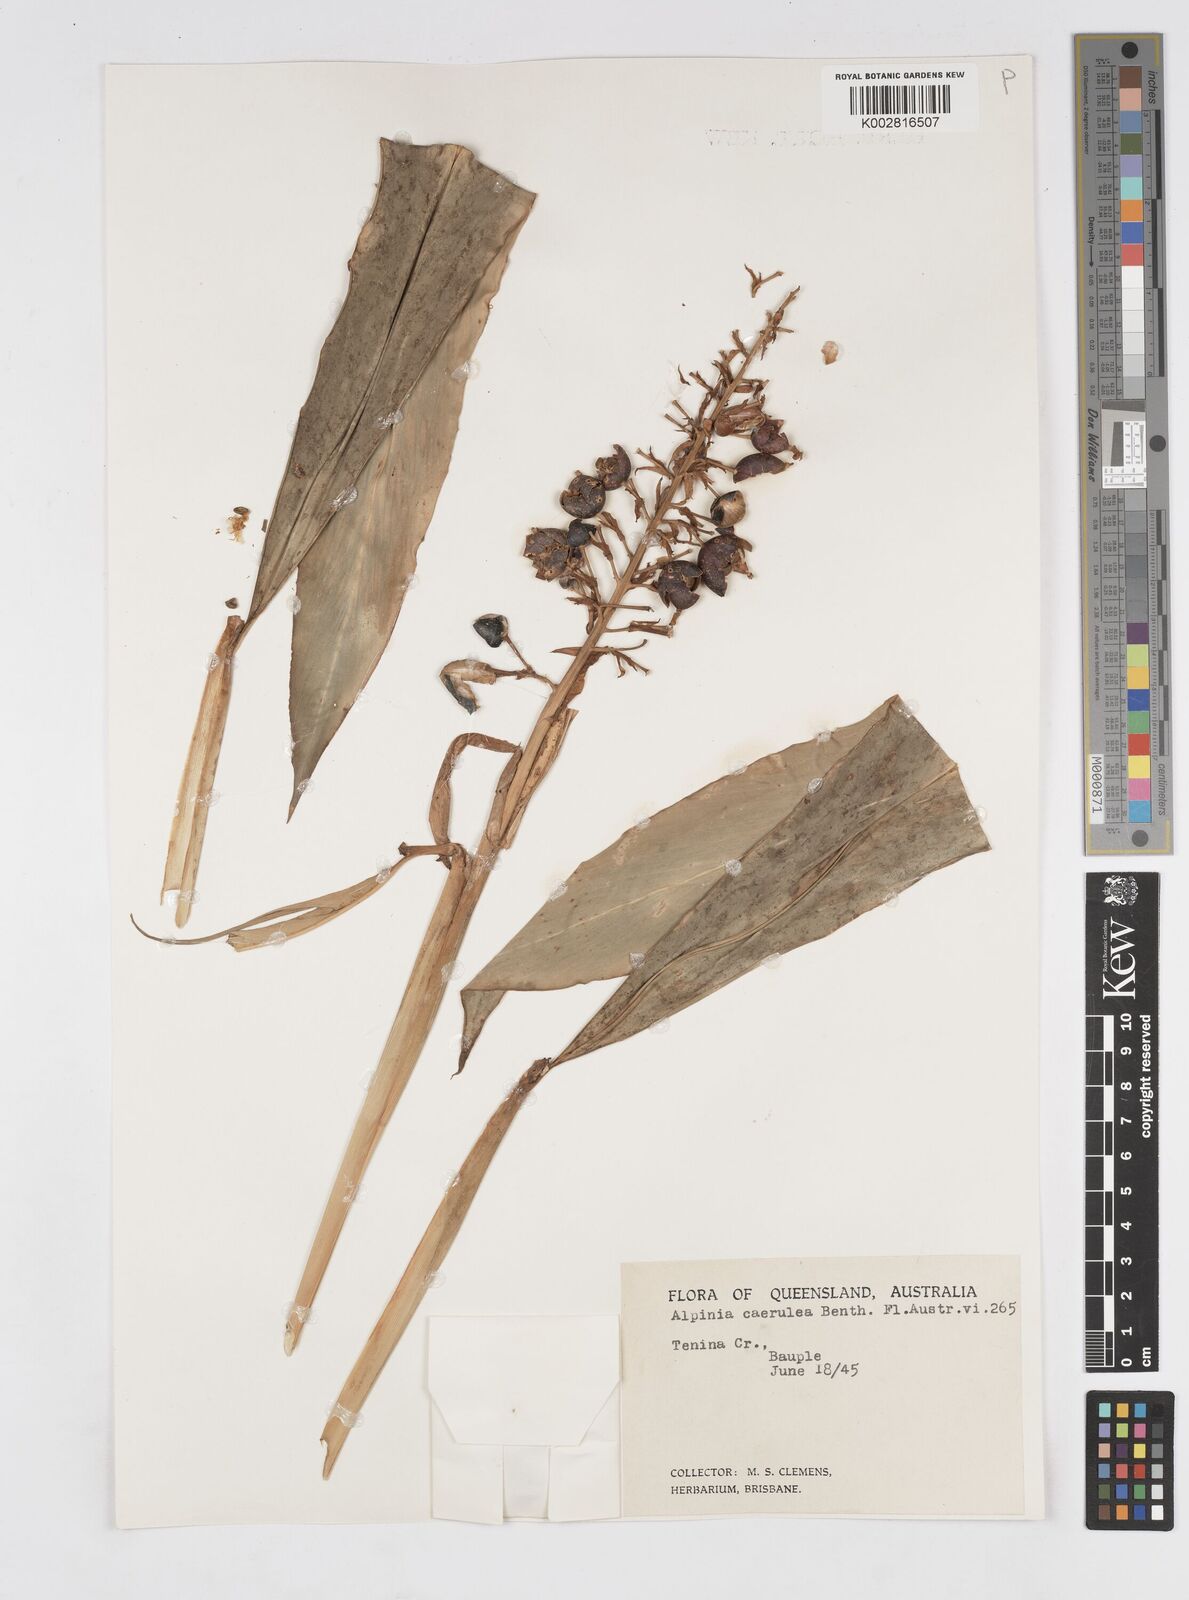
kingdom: Plantae
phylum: Tracheophyta
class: Liliopsida
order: Zingiberales
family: Zingiberaceae
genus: Alpinia
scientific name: Alpinia
